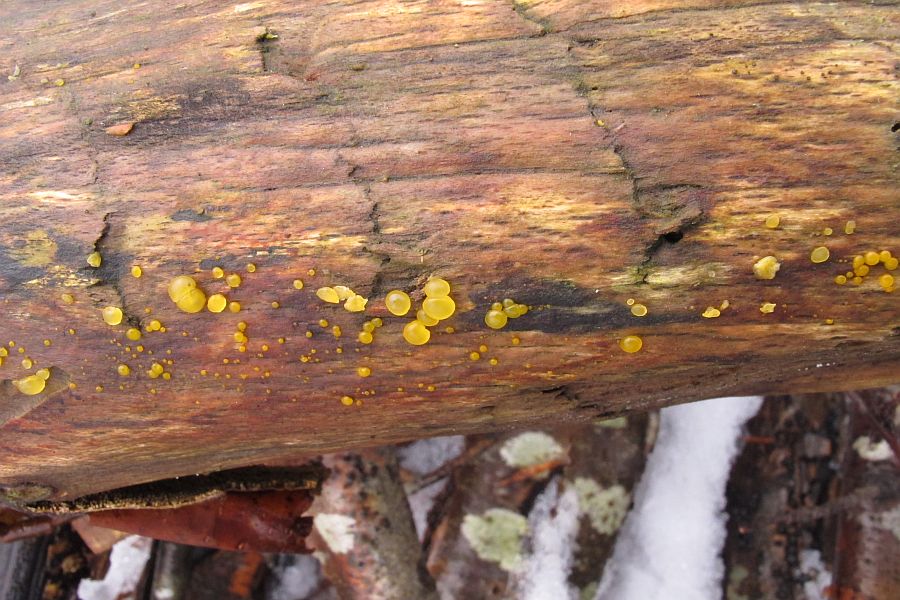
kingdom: Fungi
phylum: Basidiomycota
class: Dacrymycetes
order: Dacrymycetales
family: Dacrymycetaceae
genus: Dacrymyces
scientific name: Dacrymyces lacrymalis
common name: rynket tåresvamp
